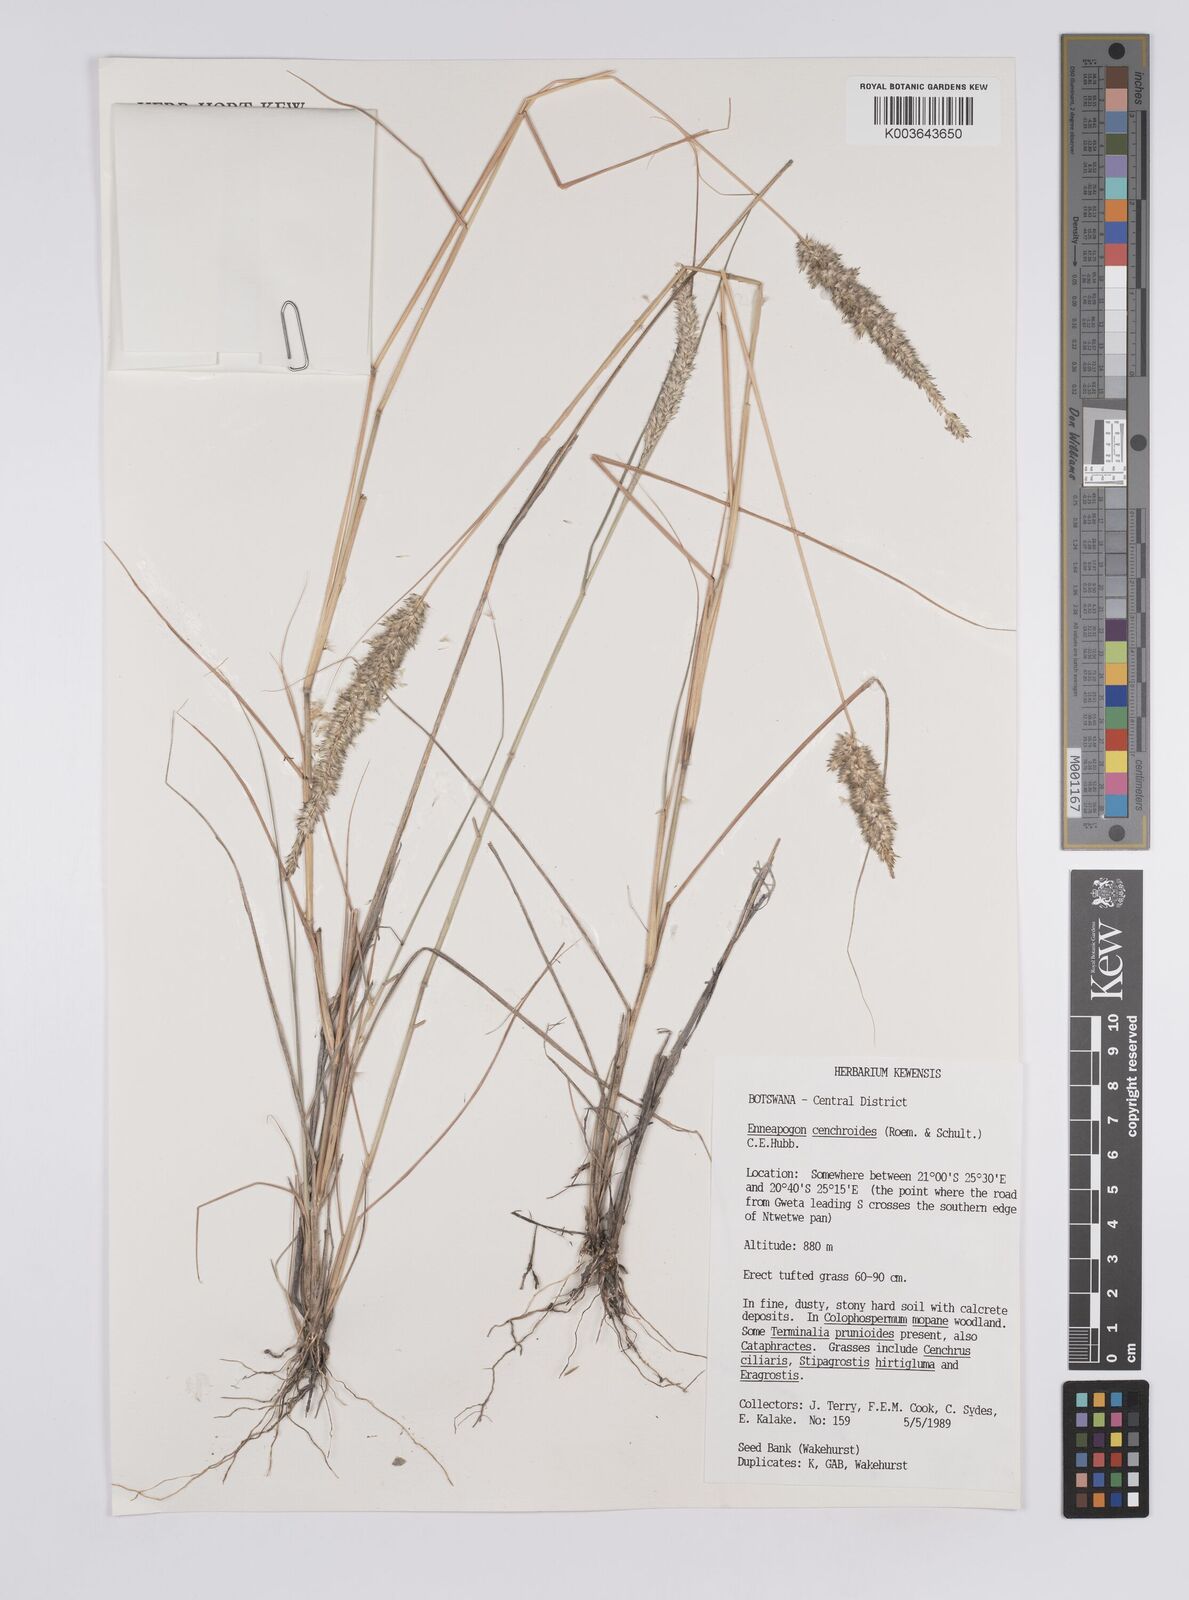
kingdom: Plantae
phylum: Tracheophyta
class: Liliopsida
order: Poales
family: Poaceae
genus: Enneapogon
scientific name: Enneapogon cenchroides
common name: Soft feather pappusgrass
